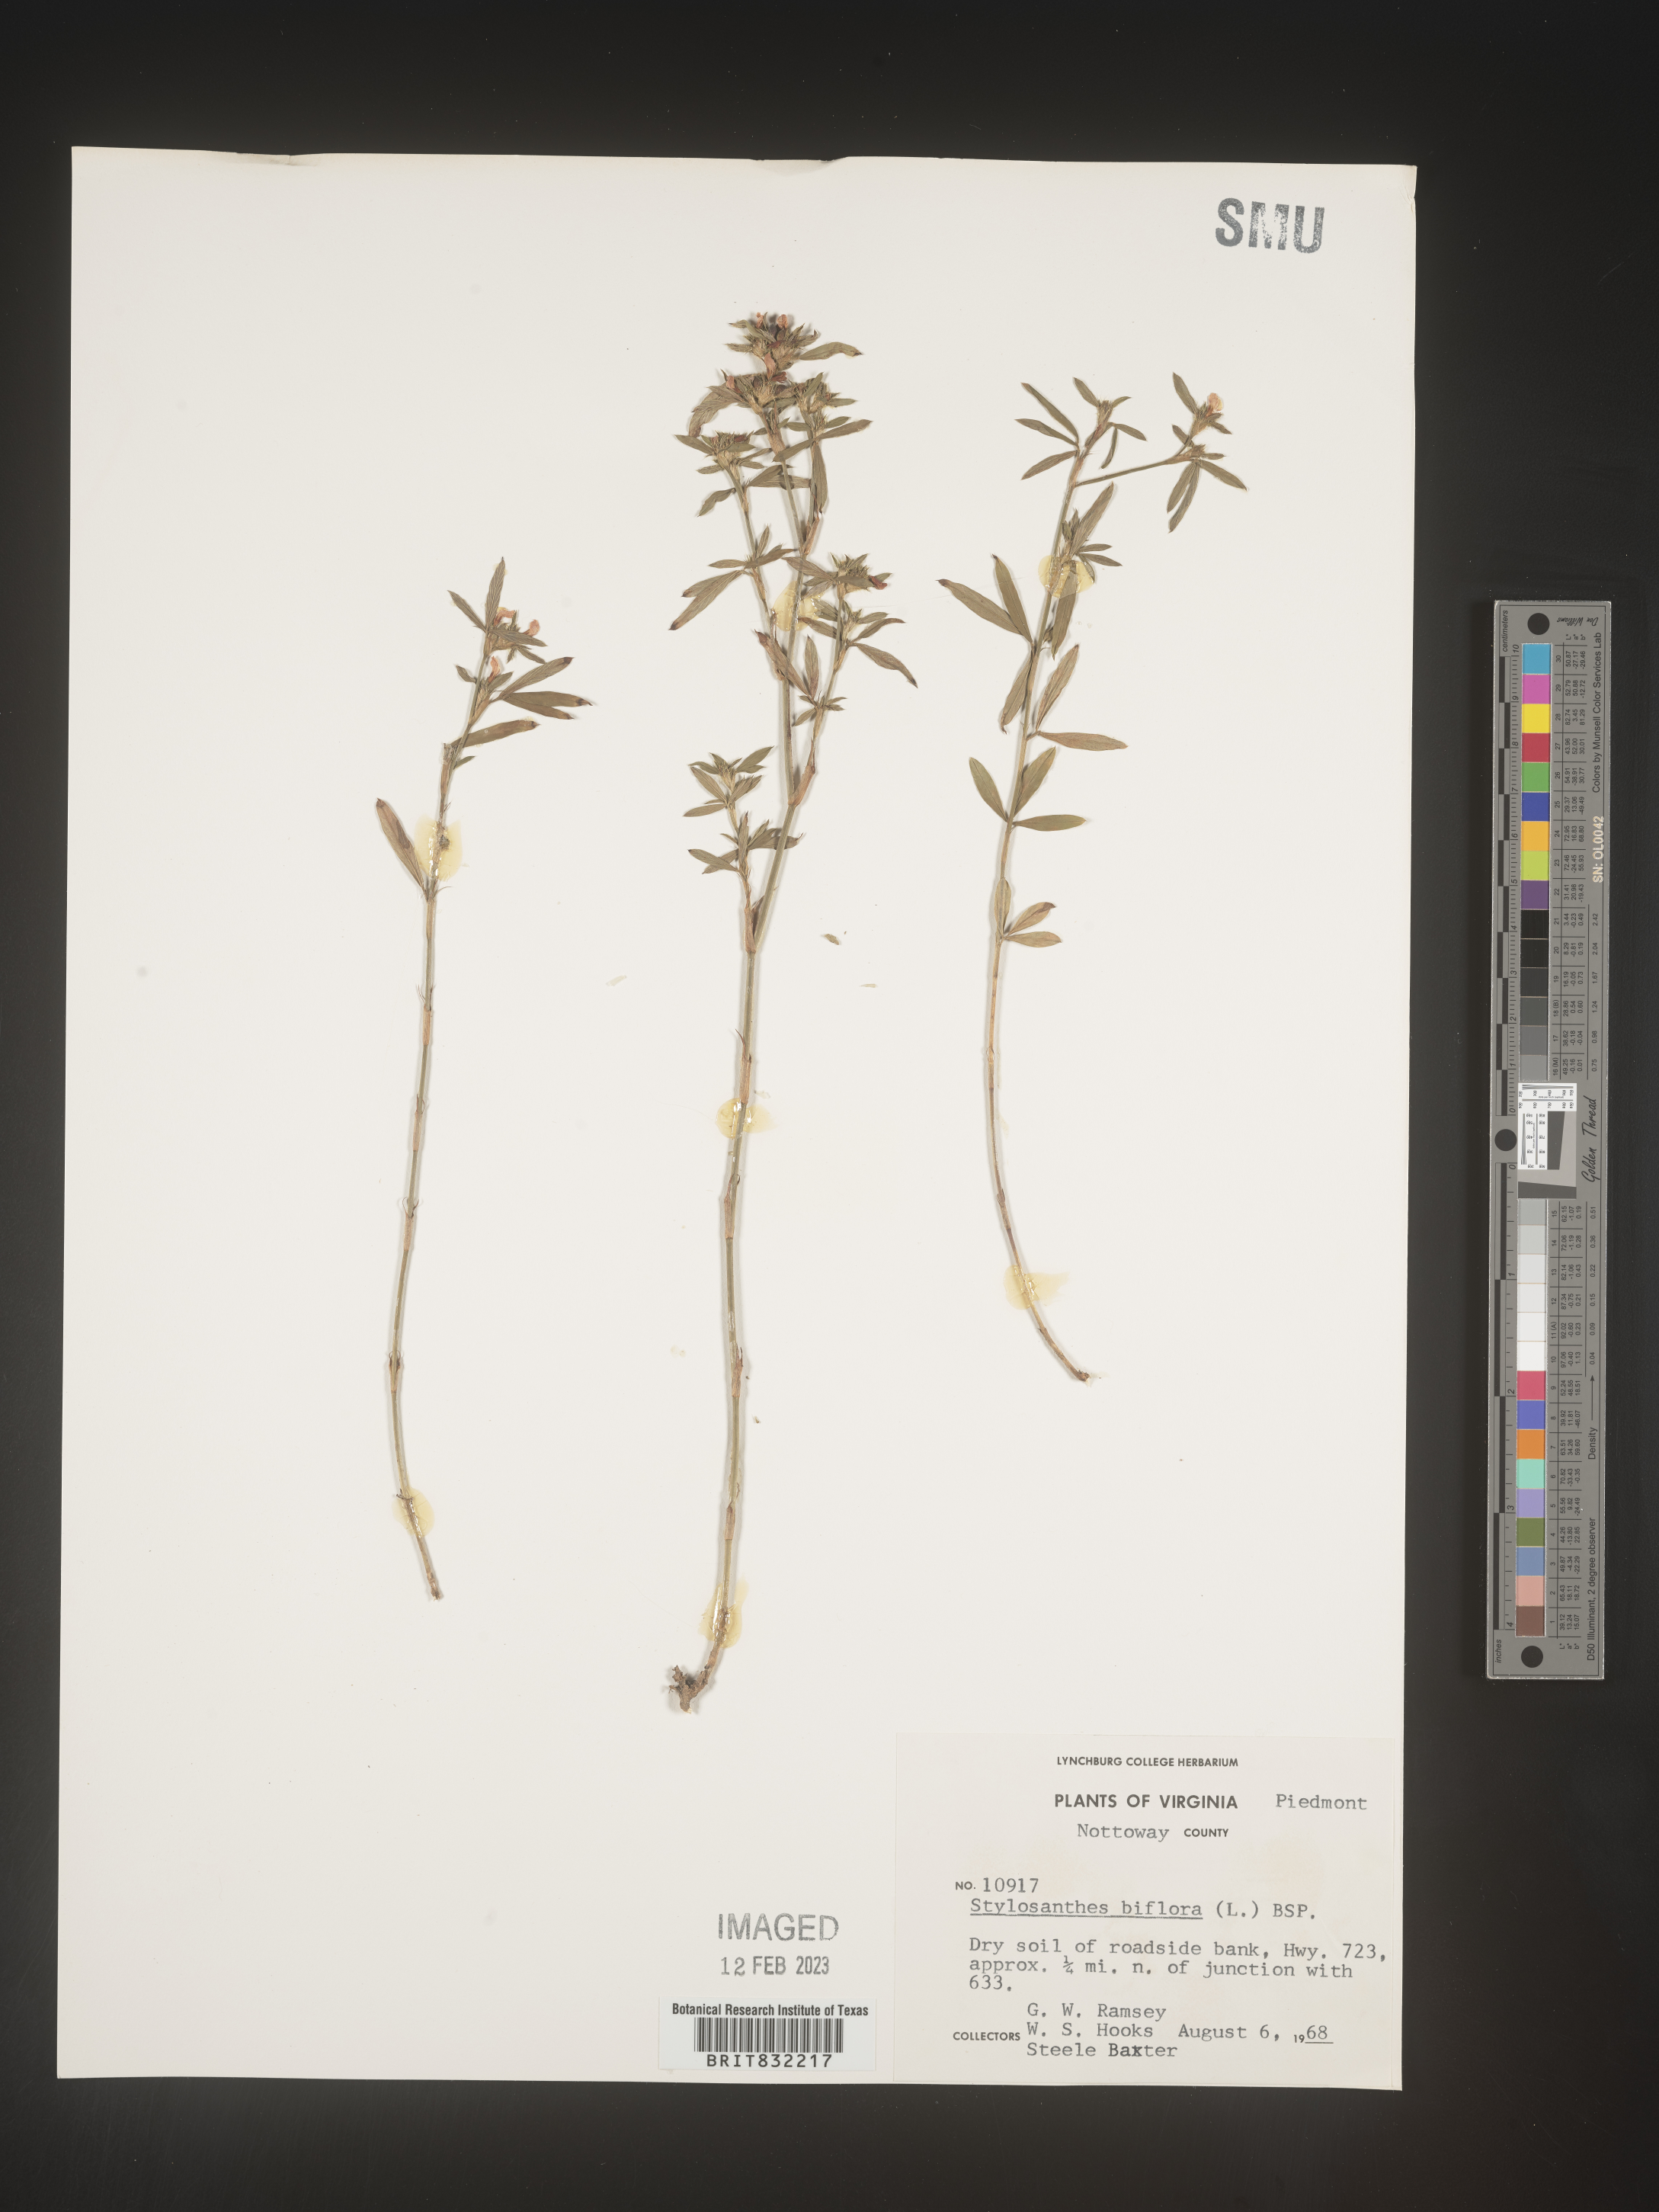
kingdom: Plantae
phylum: Tracheophyta
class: Magnoliopsida
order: Fabales
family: Fabaceae
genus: Stylosanthes
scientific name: Stylosanthes biflora
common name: Two-flower pencil-flower
